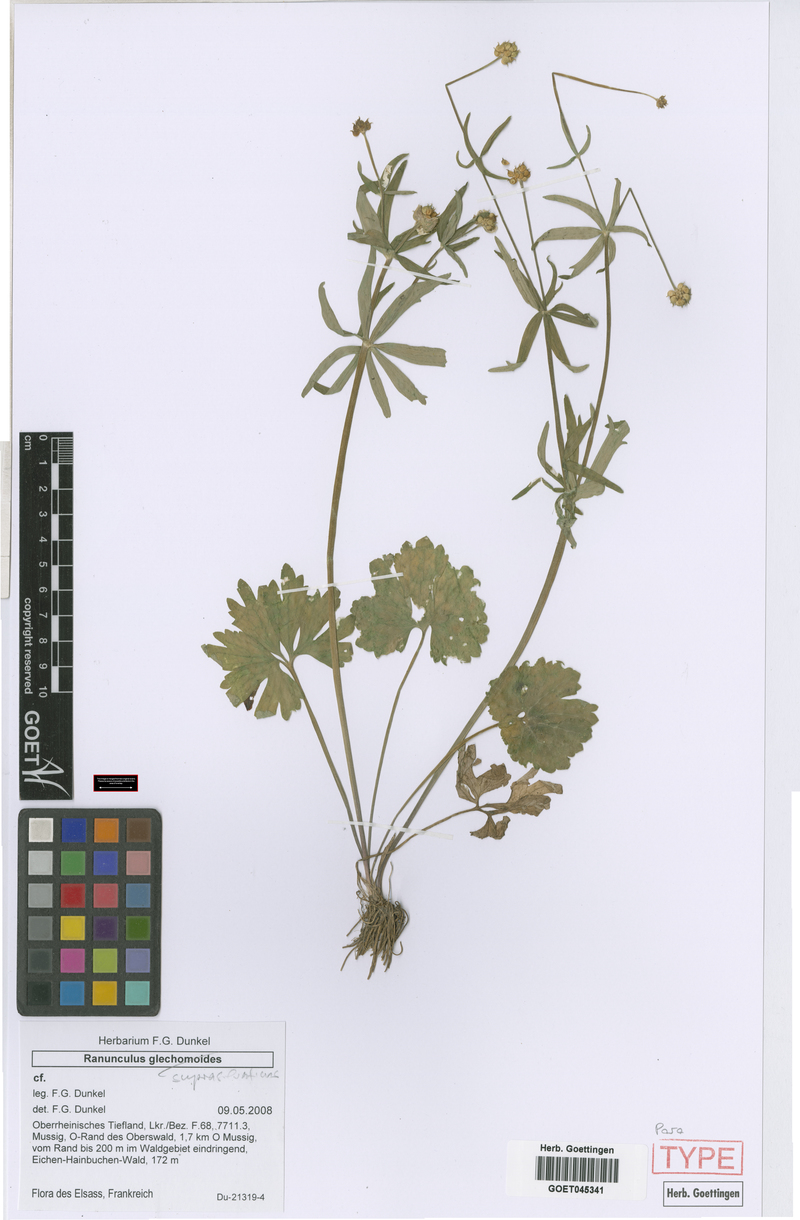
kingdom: Plantae
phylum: Tracheophyta
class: Magnoliopsida
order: Ranunculales
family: Ranunculaceae
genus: Ranunculus
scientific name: Ranunculus suprasilvaticus
